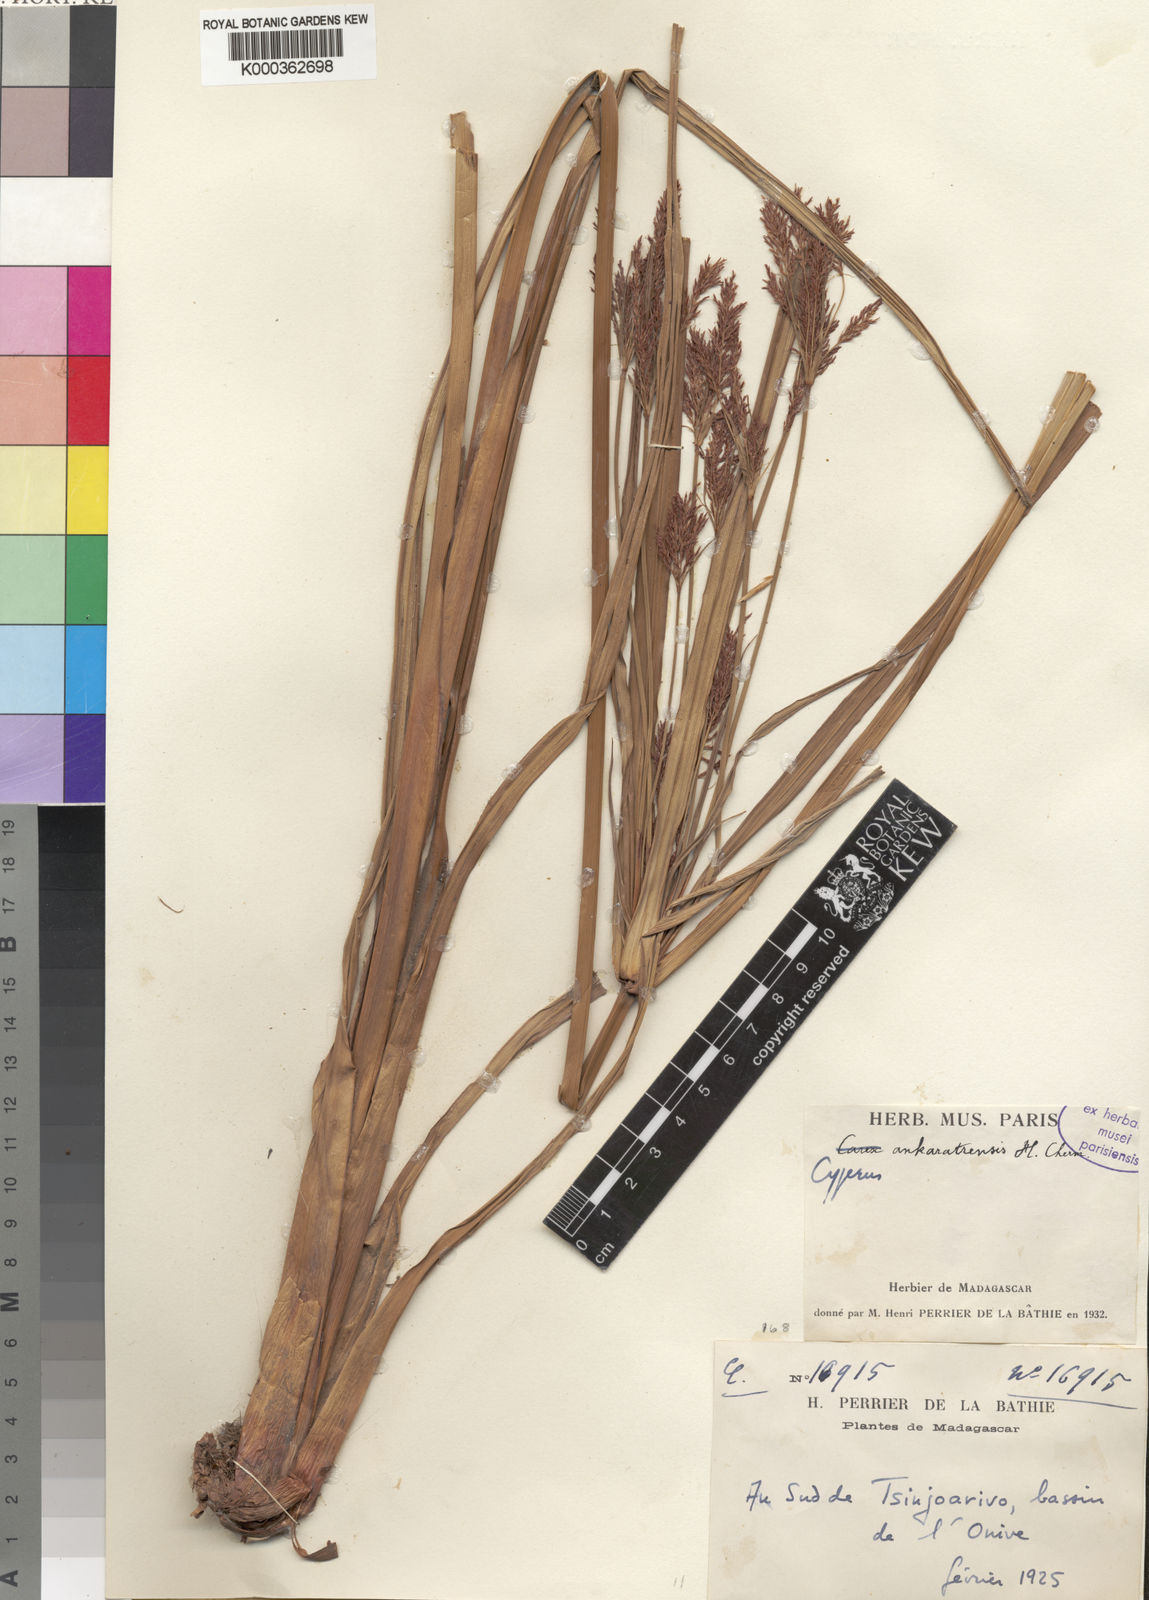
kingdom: Plantae
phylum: Tracheophyta
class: Liliopsida
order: Poales
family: Cyperaceae
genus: Cyperus
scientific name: Cyperus ankaratrensis
